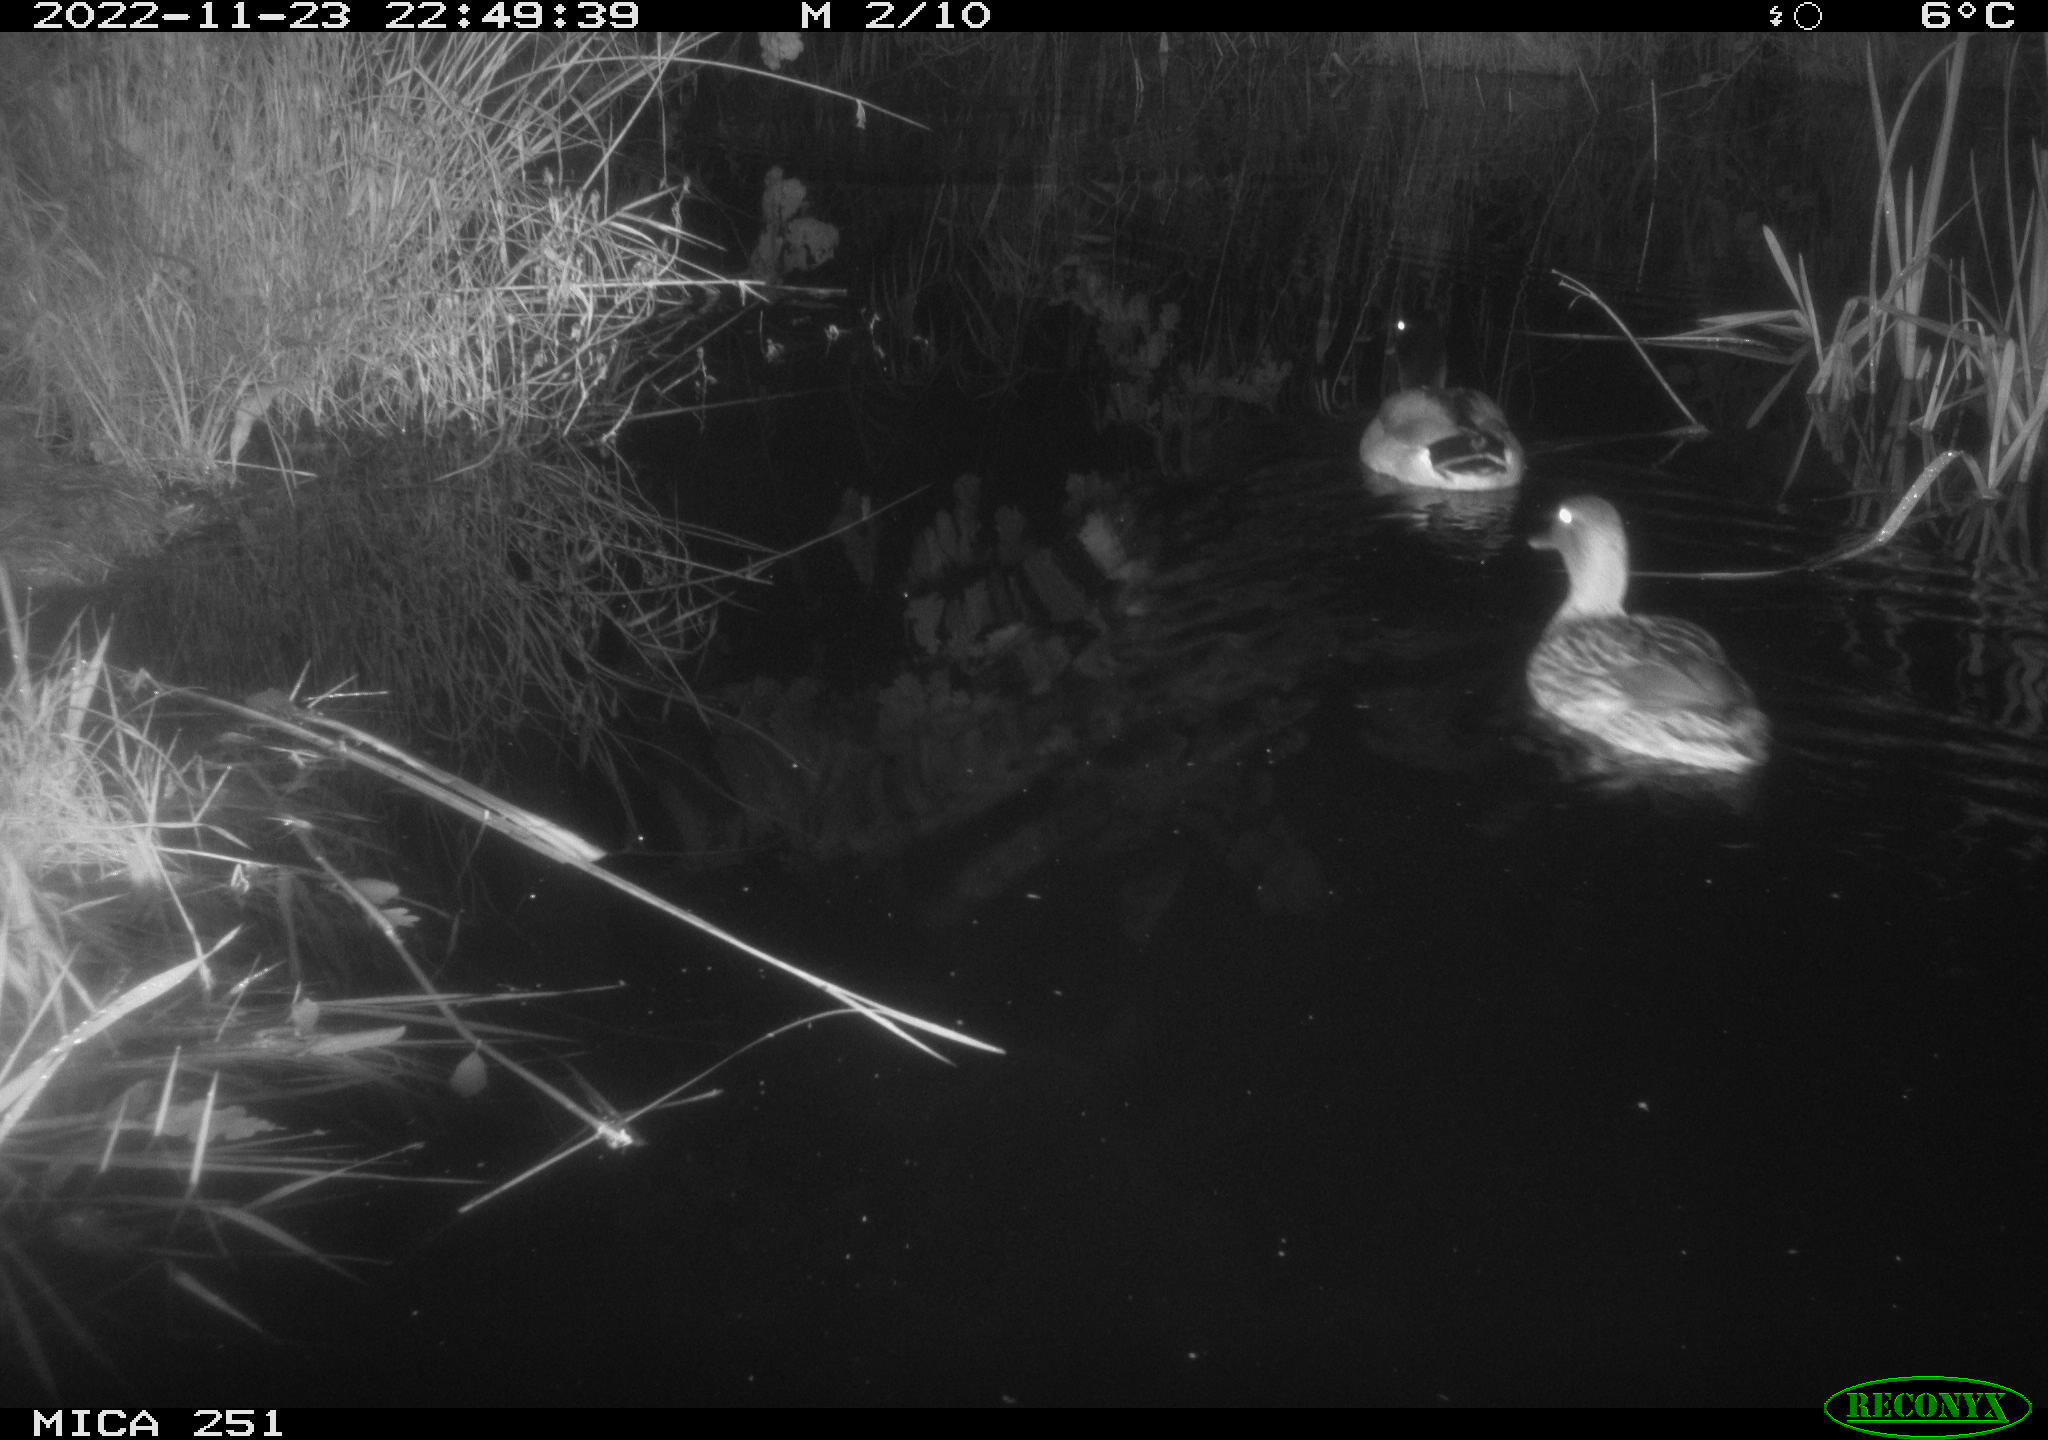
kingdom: Animalia
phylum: Chordata
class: Aves
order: Anseriformes
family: Anatidae
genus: Anas
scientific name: Anas
